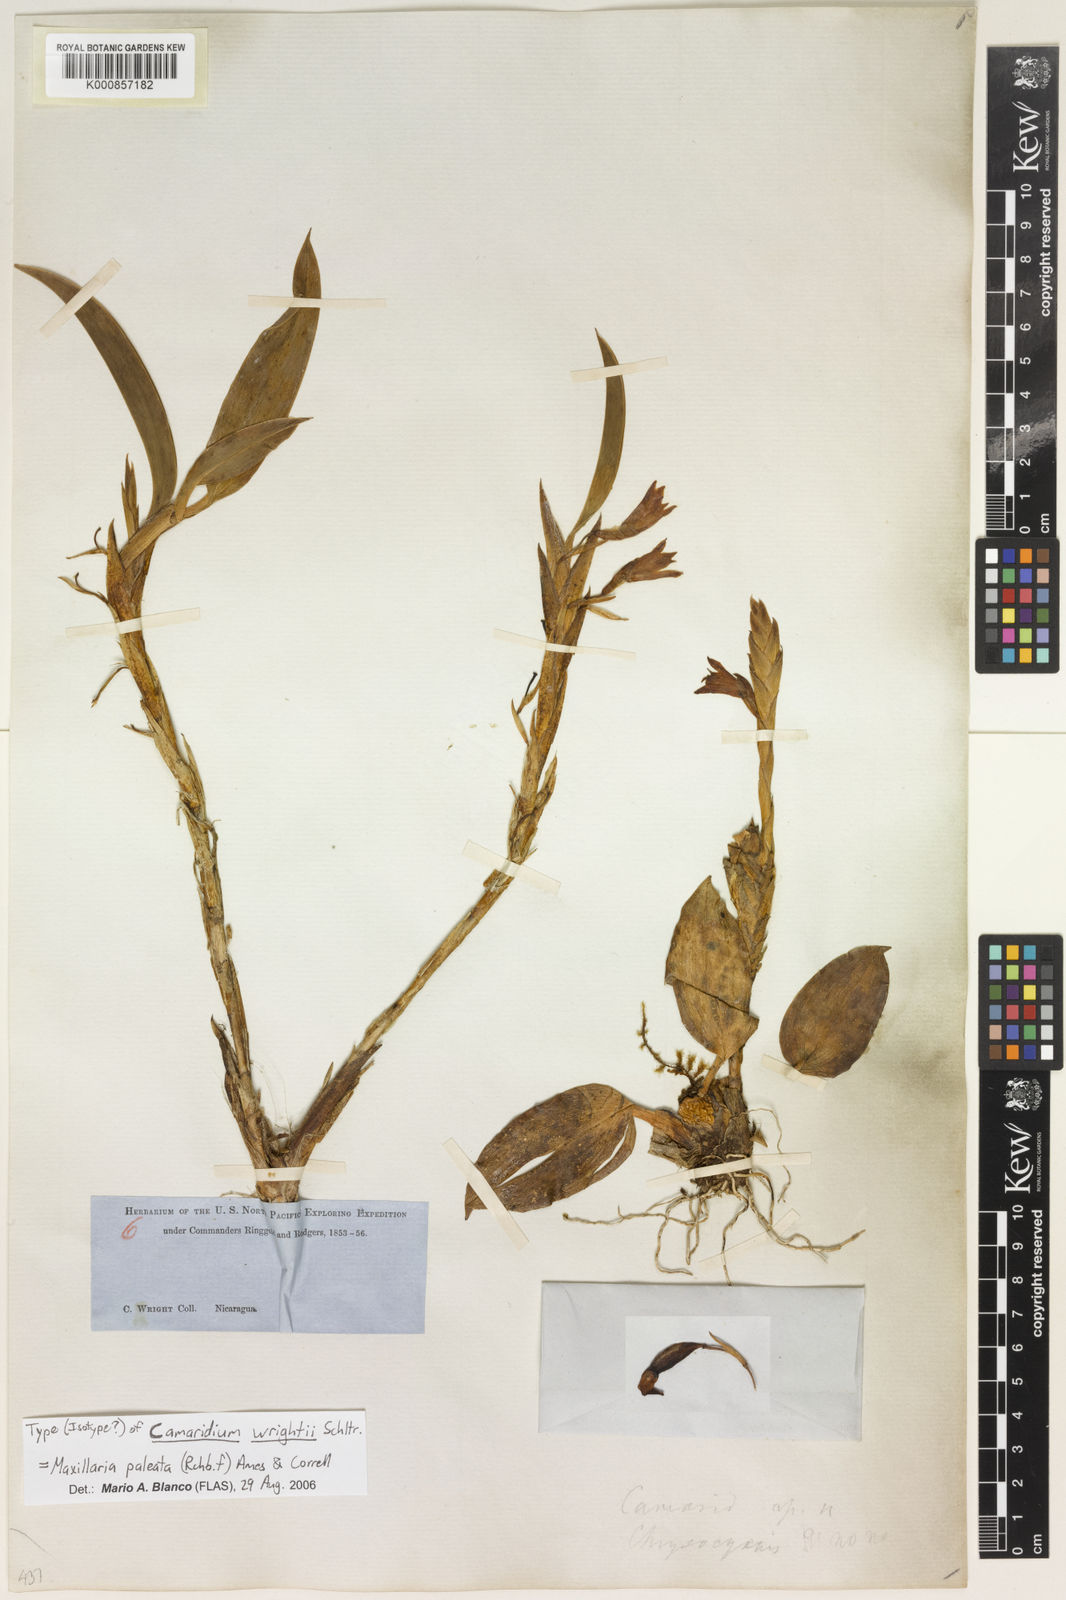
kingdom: Plantae
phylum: Tracheophyta
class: Liliopsida
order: Asparagales
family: Orchidaceae
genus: Maxillaria
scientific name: Maxillaria paleata
